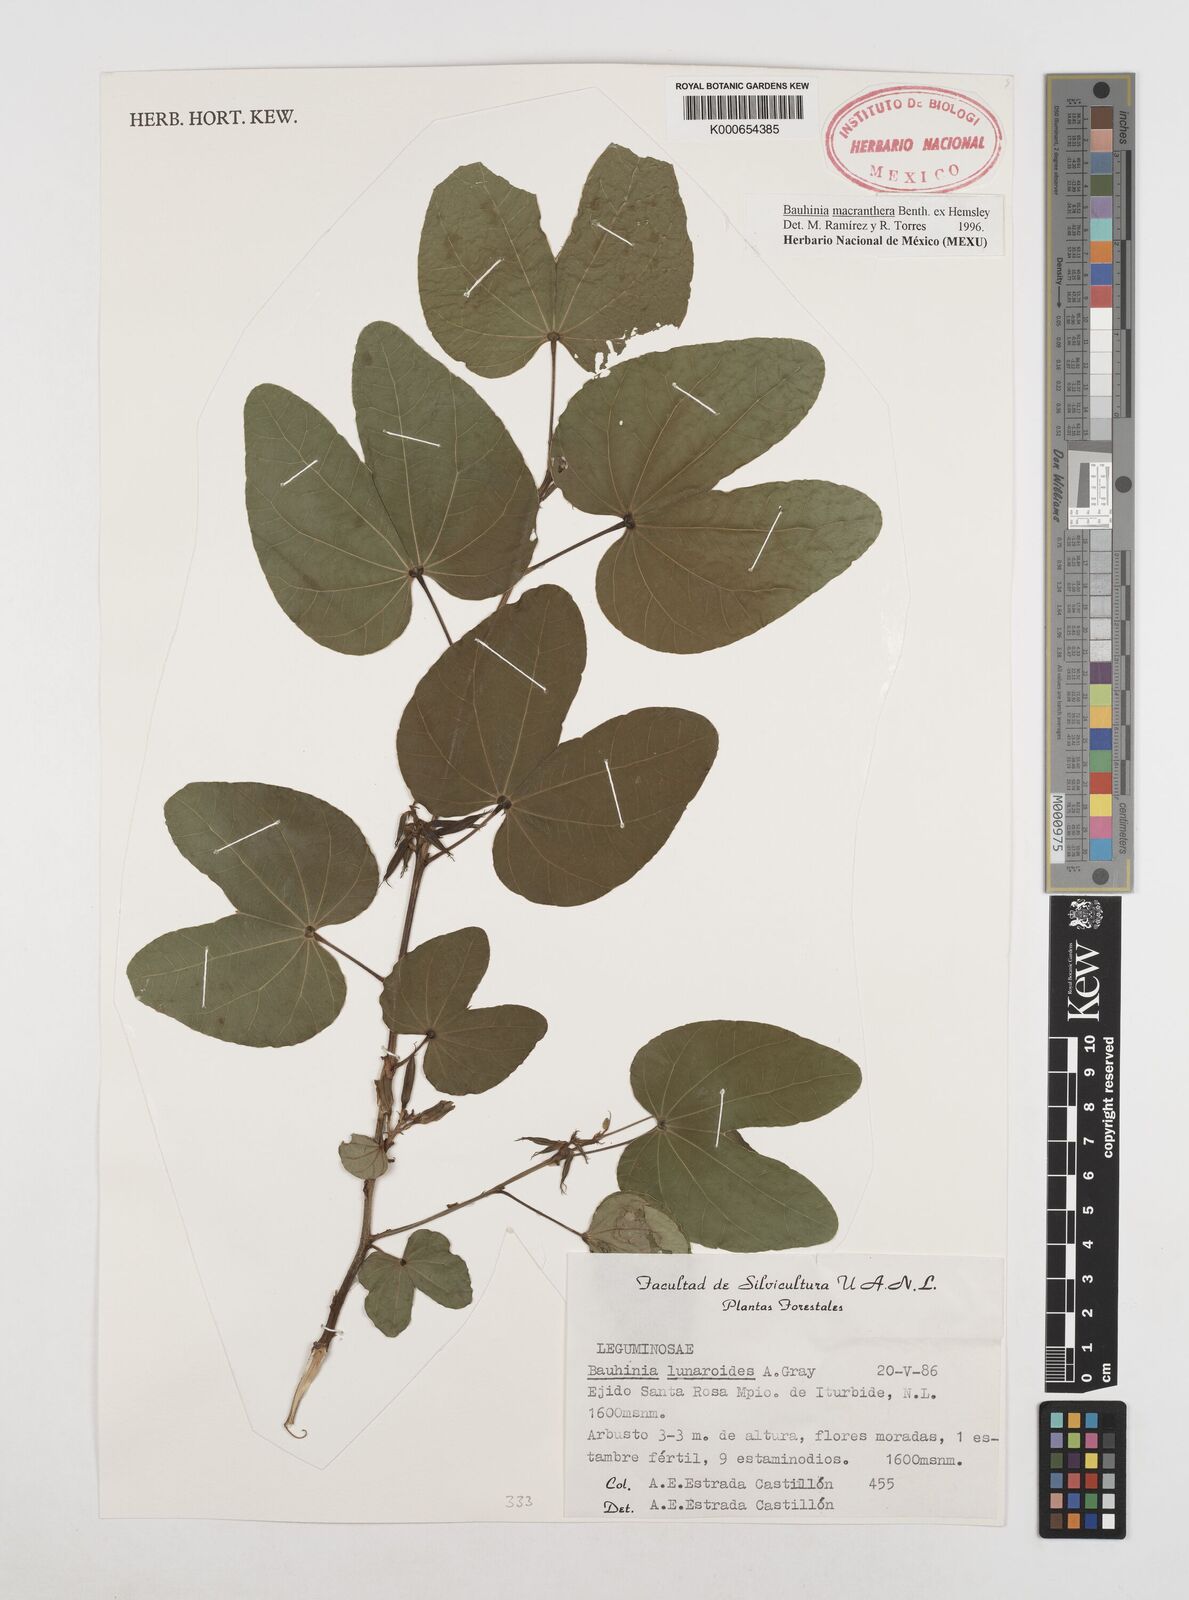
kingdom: Plantae
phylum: Tracheophyta
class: Magnoliopsida
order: Fabales
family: Fabaceae
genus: Bauhinia
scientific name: Bauhinia macranthera
